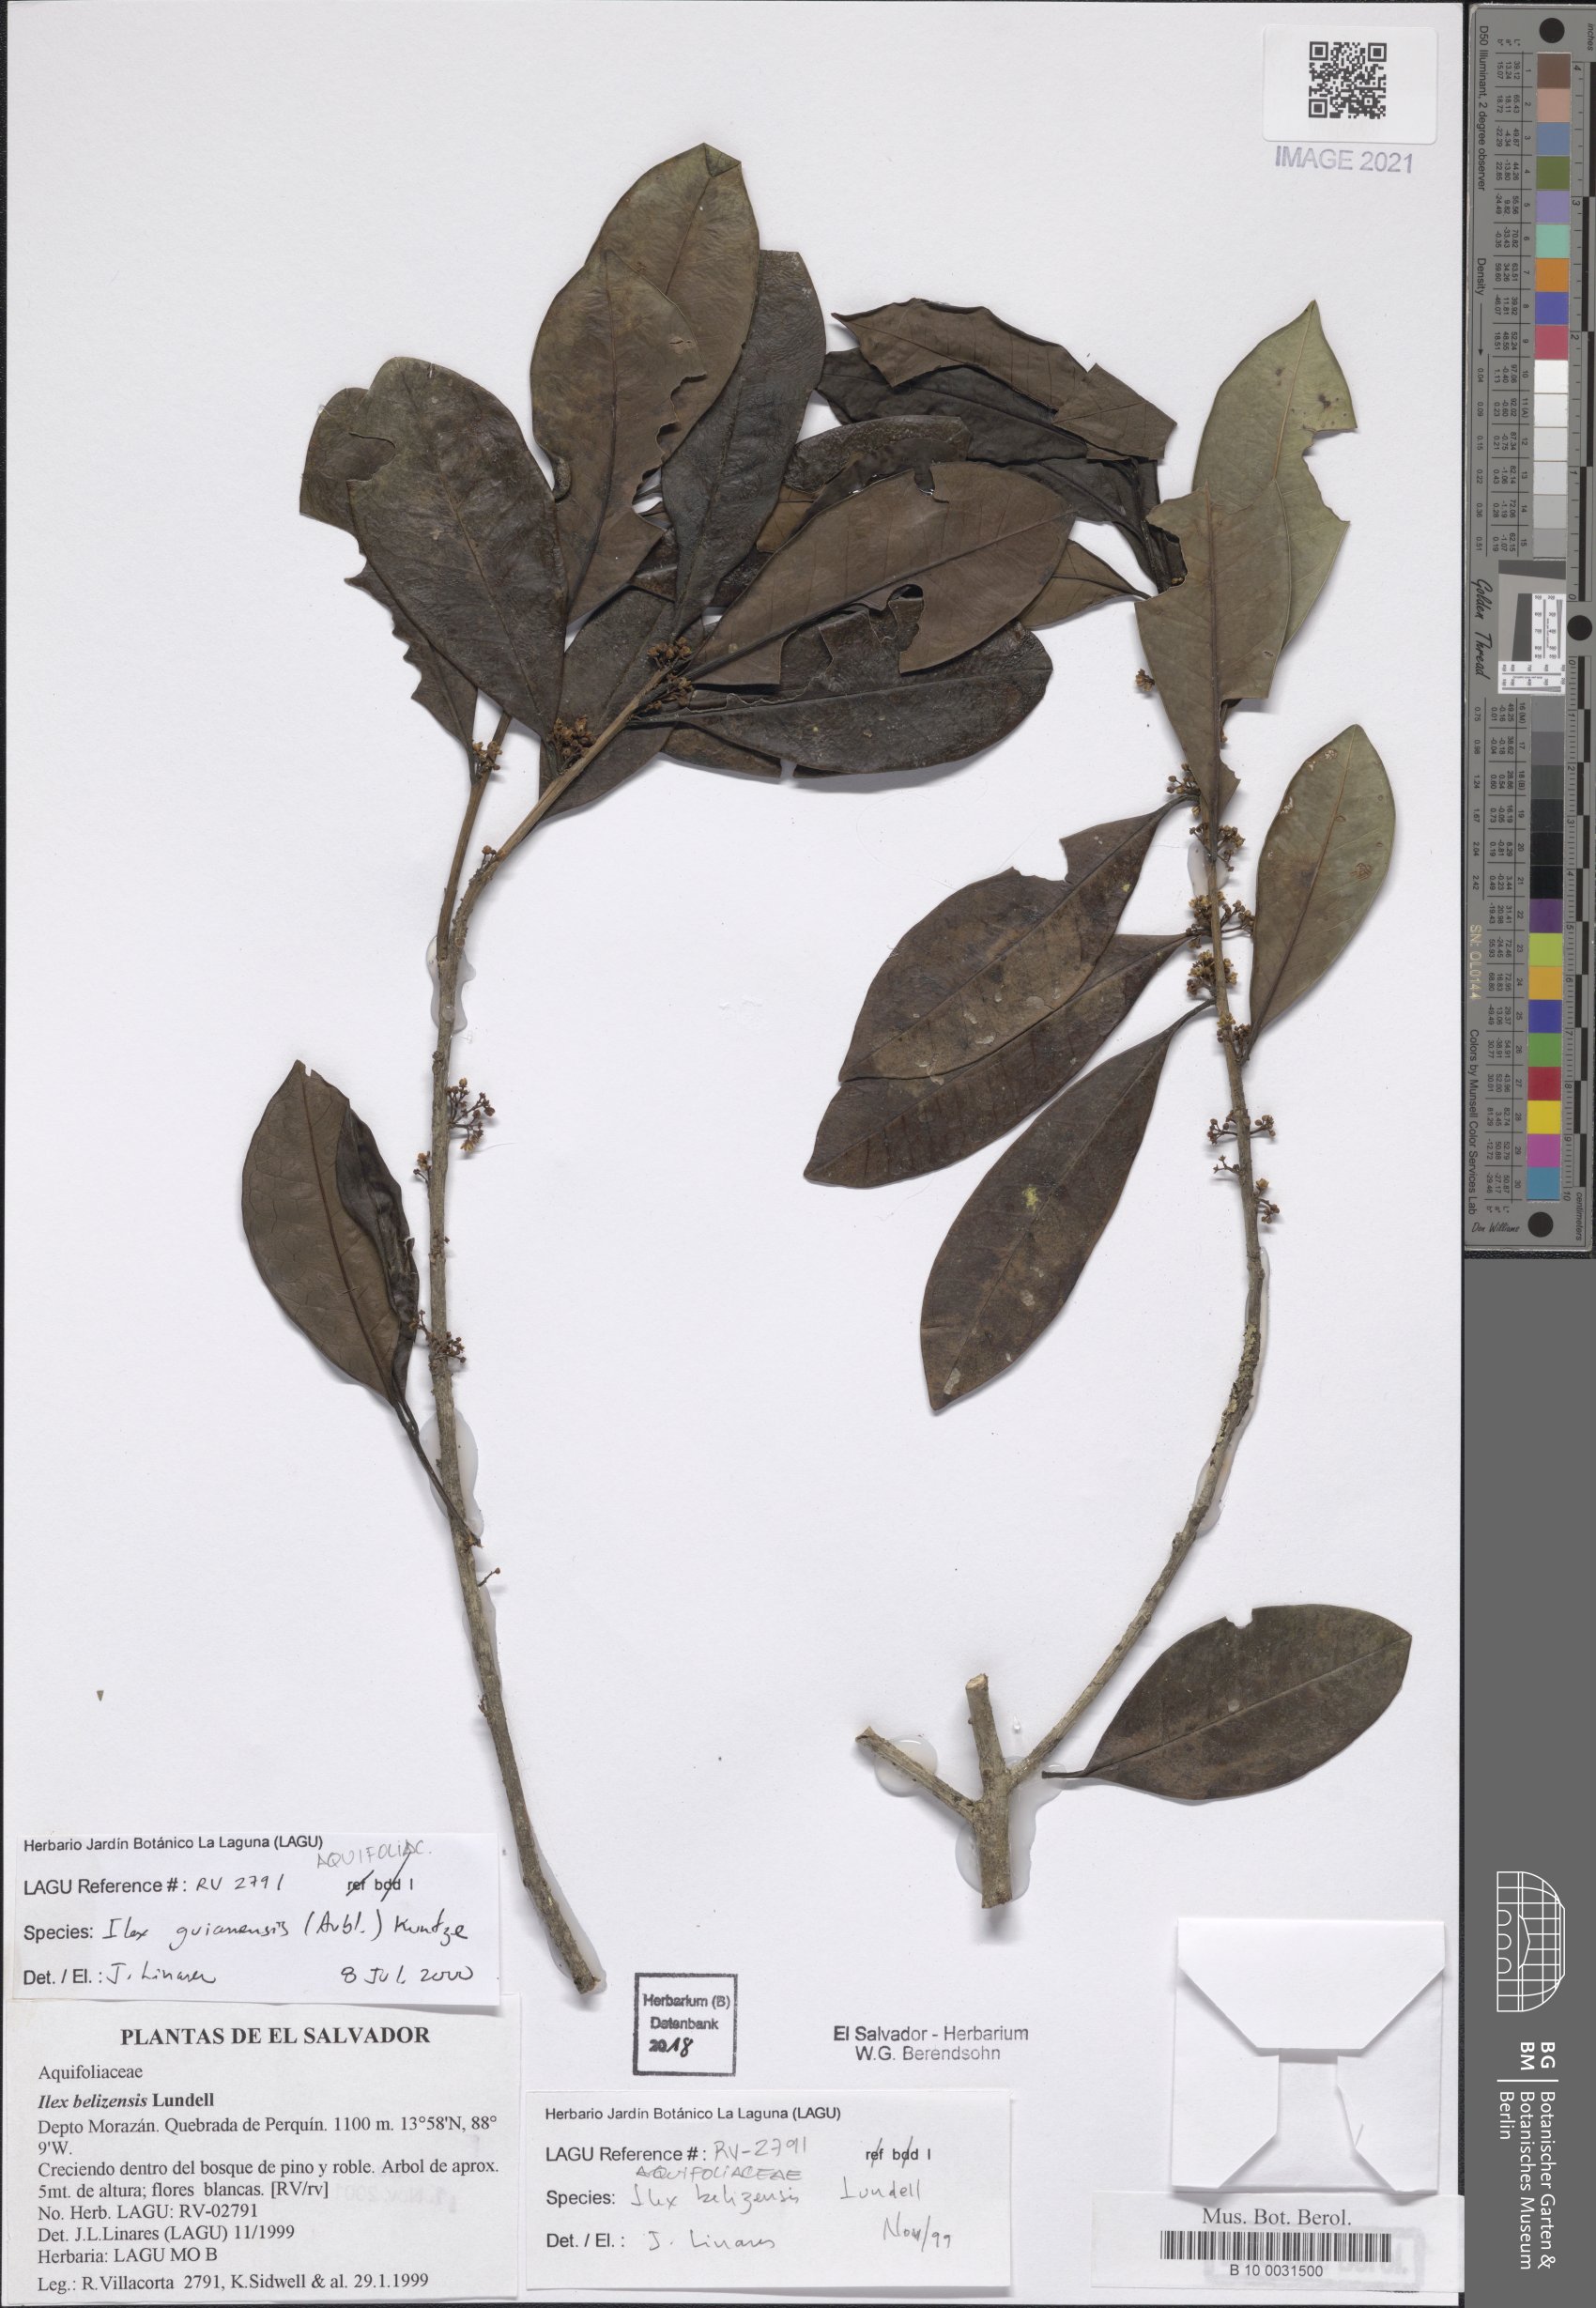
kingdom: Plantae
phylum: Tracheophyta
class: Magnoliopsida
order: Aquifoliales
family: Aquifoliaceae
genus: Ilex
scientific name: Ilex guianensis
